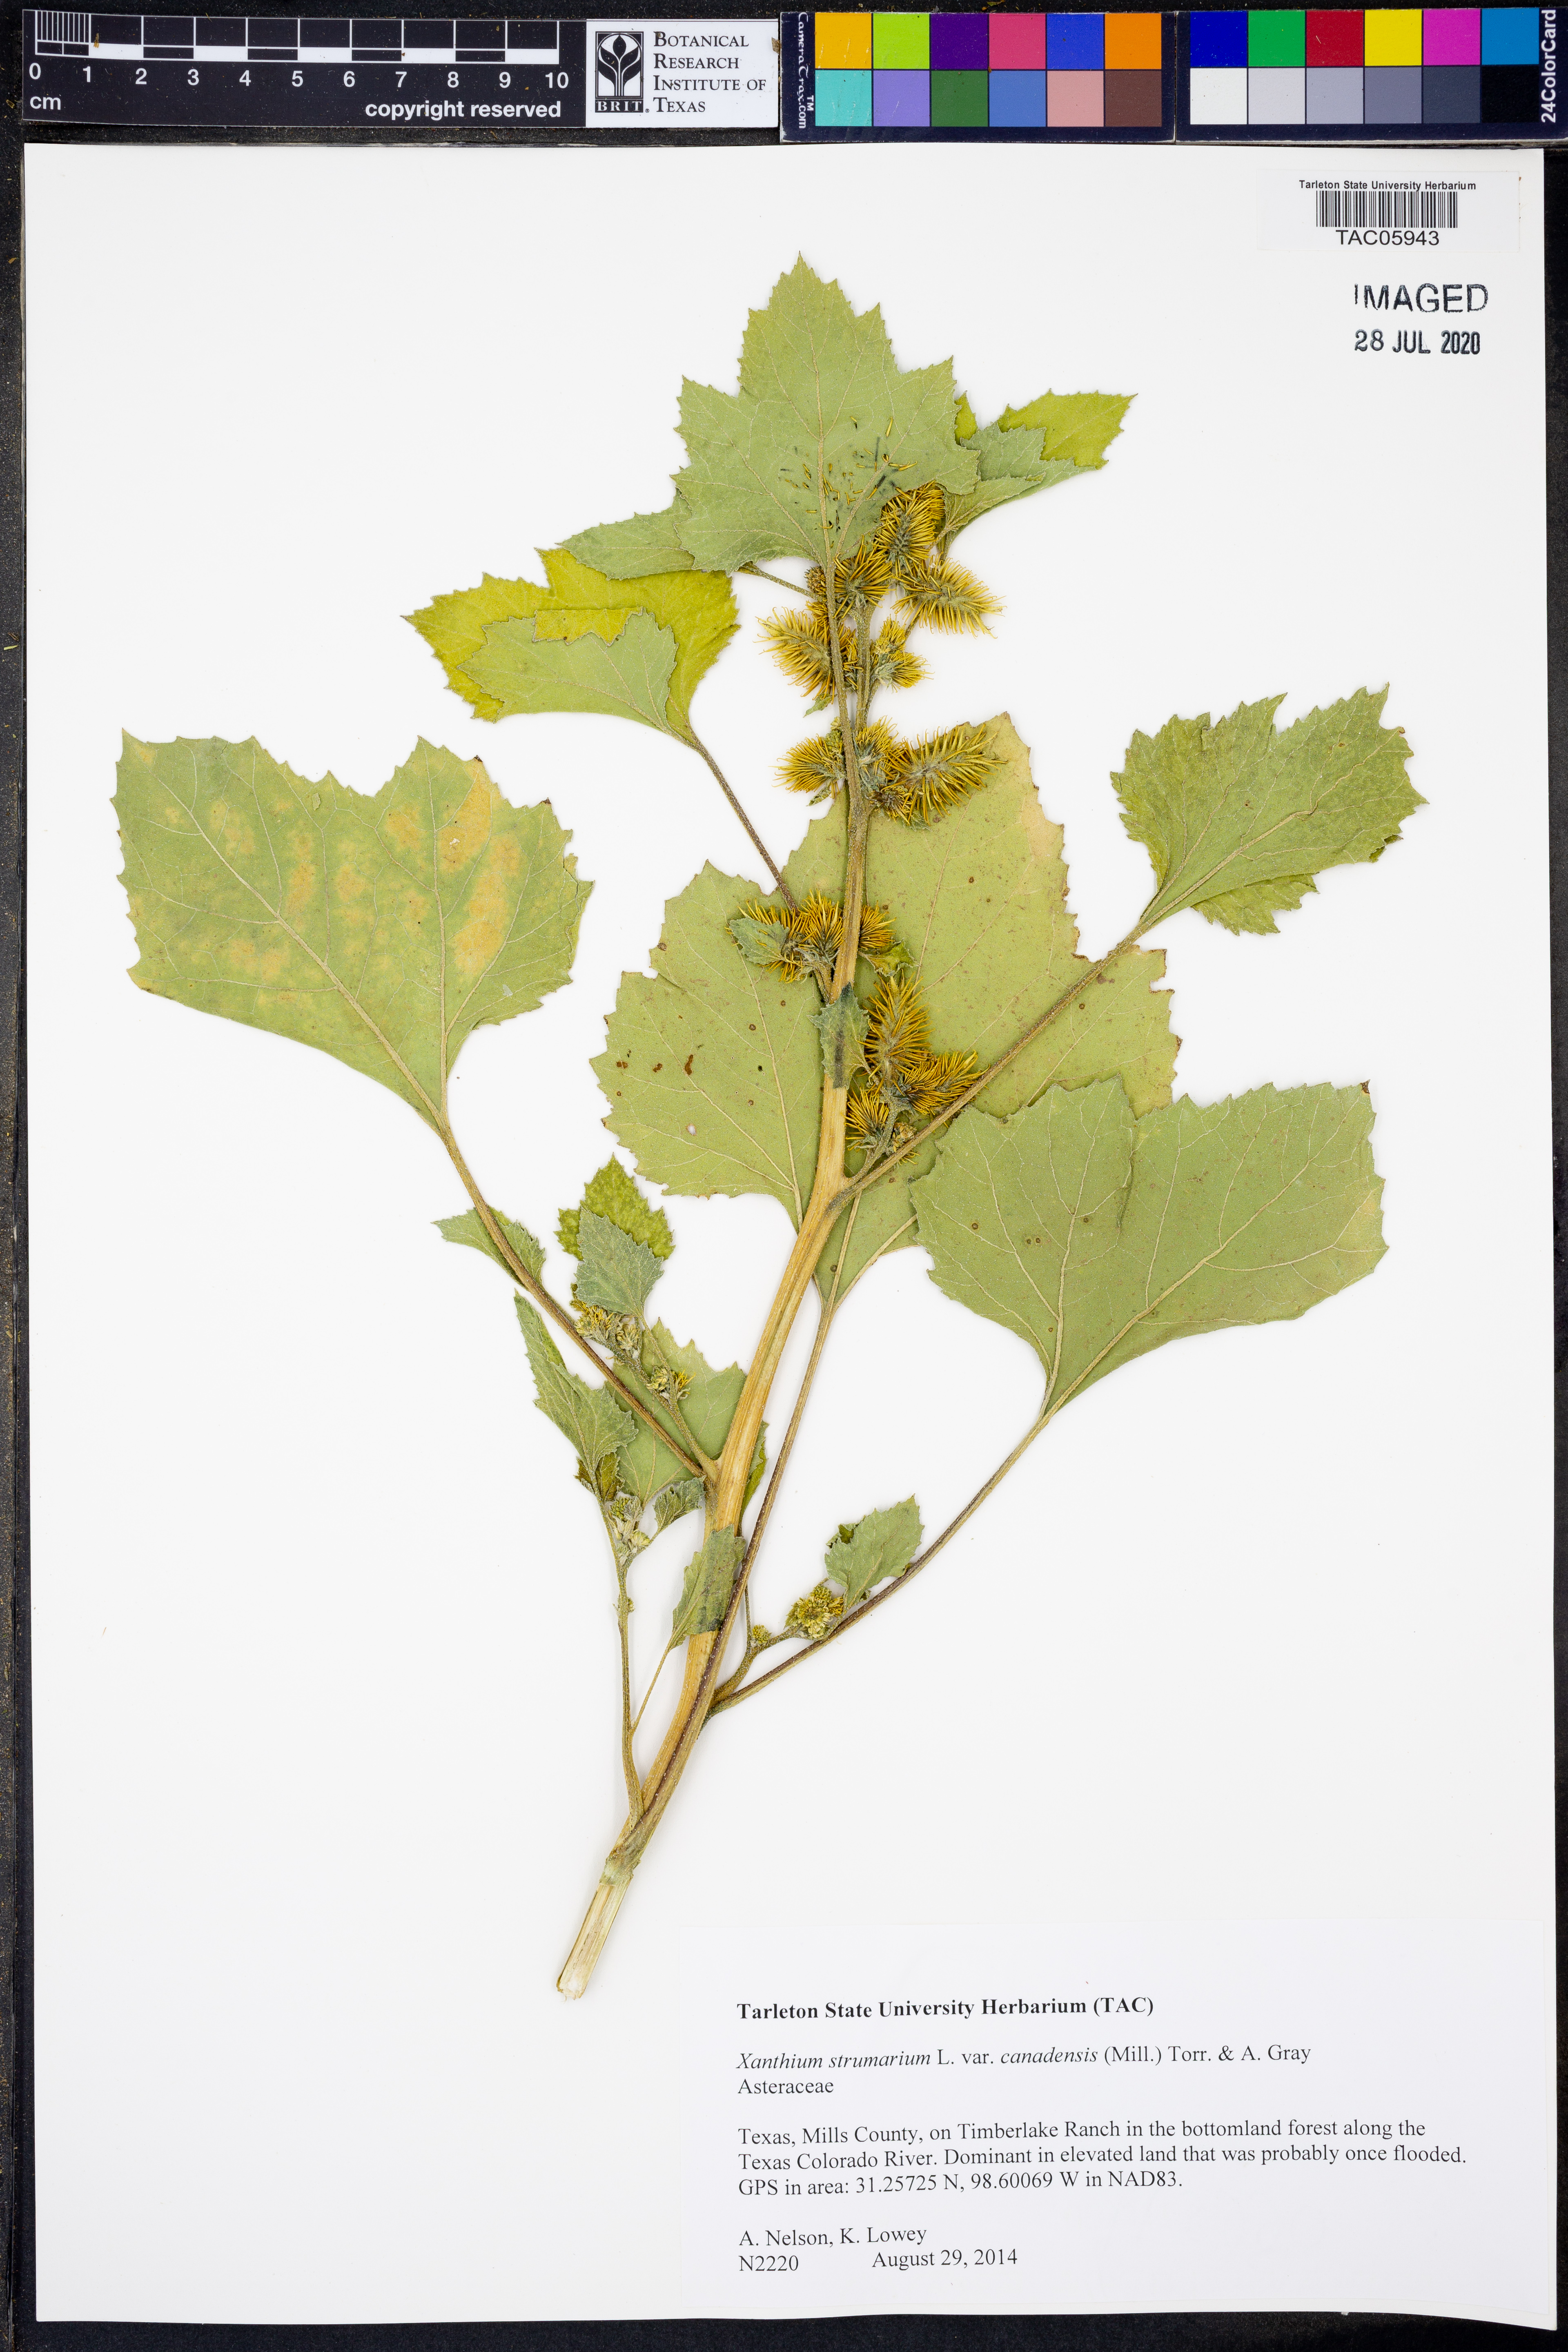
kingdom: Plantae
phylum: Tracheophyta
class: Magnoliopsida
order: Asterales
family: Asteraceae
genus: Xanthium
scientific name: Xanthium orientale
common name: Californian burr
